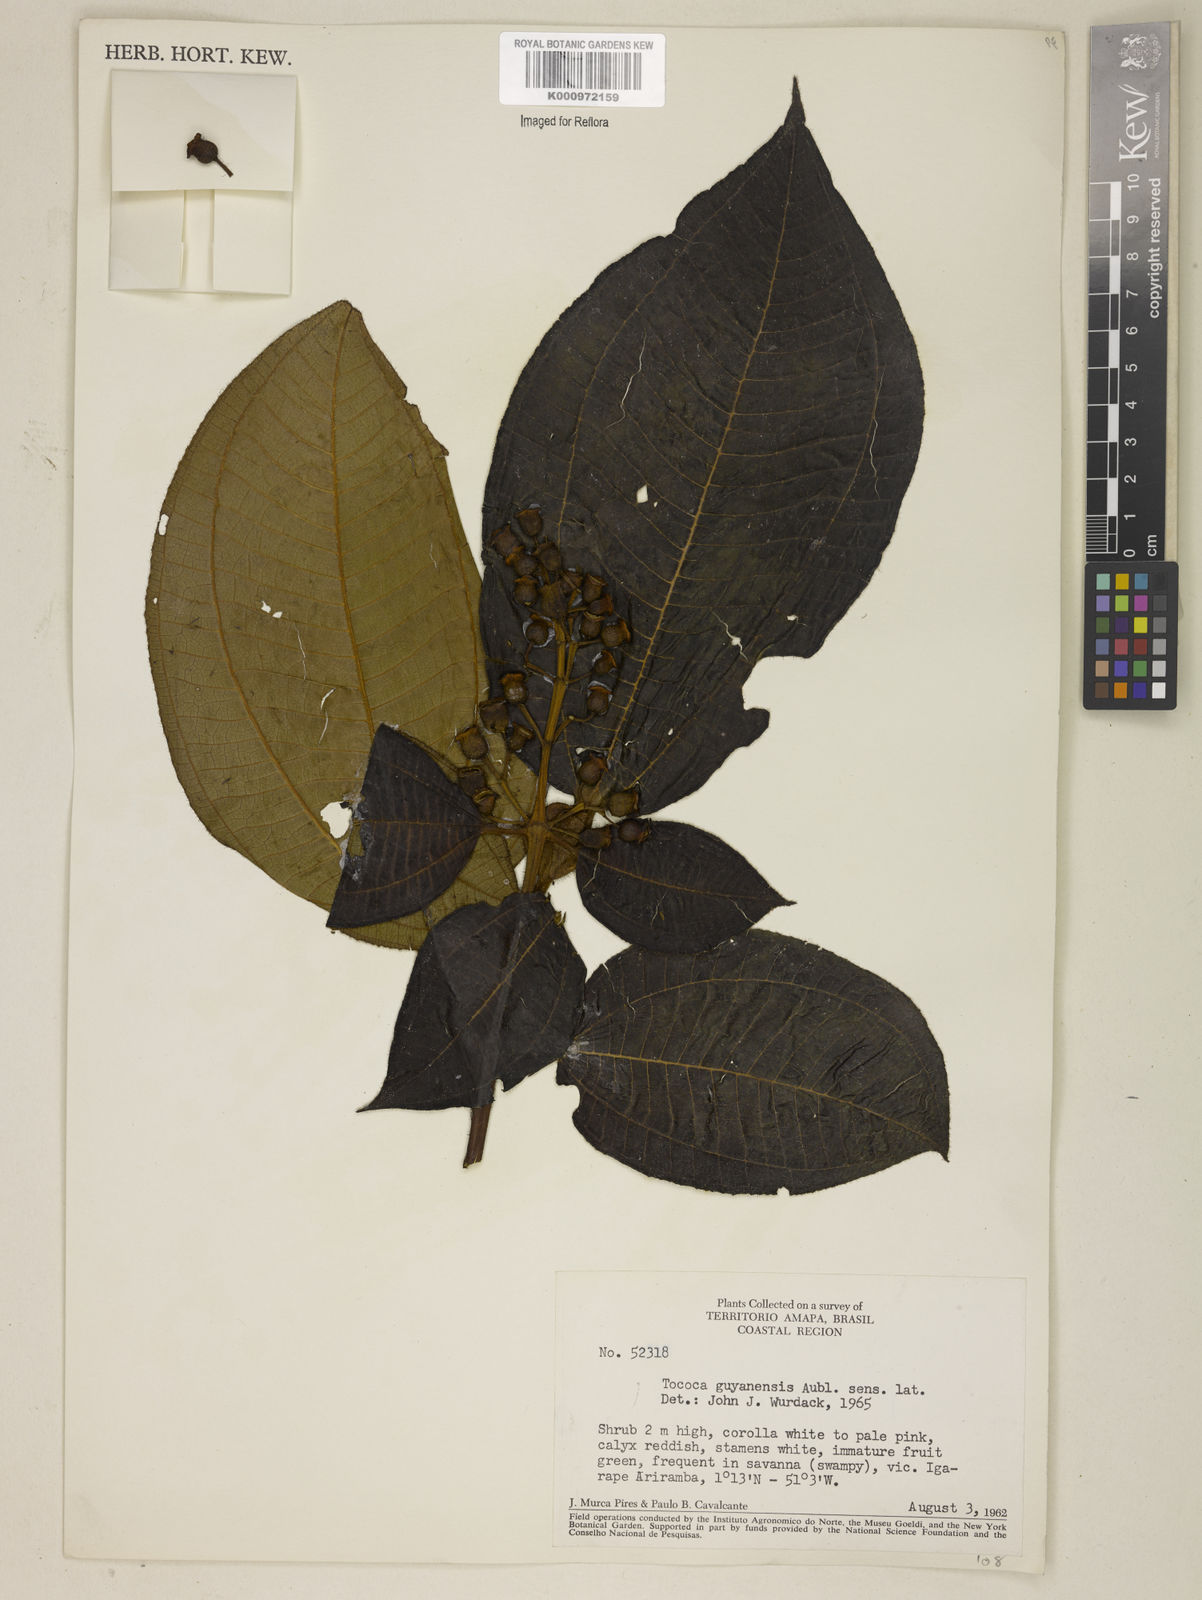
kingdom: Plantae
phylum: Tracheophyta
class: Magnoliopsida
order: Myrtales
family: Melastomataceae
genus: Miconia
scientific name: Miconia tococa
